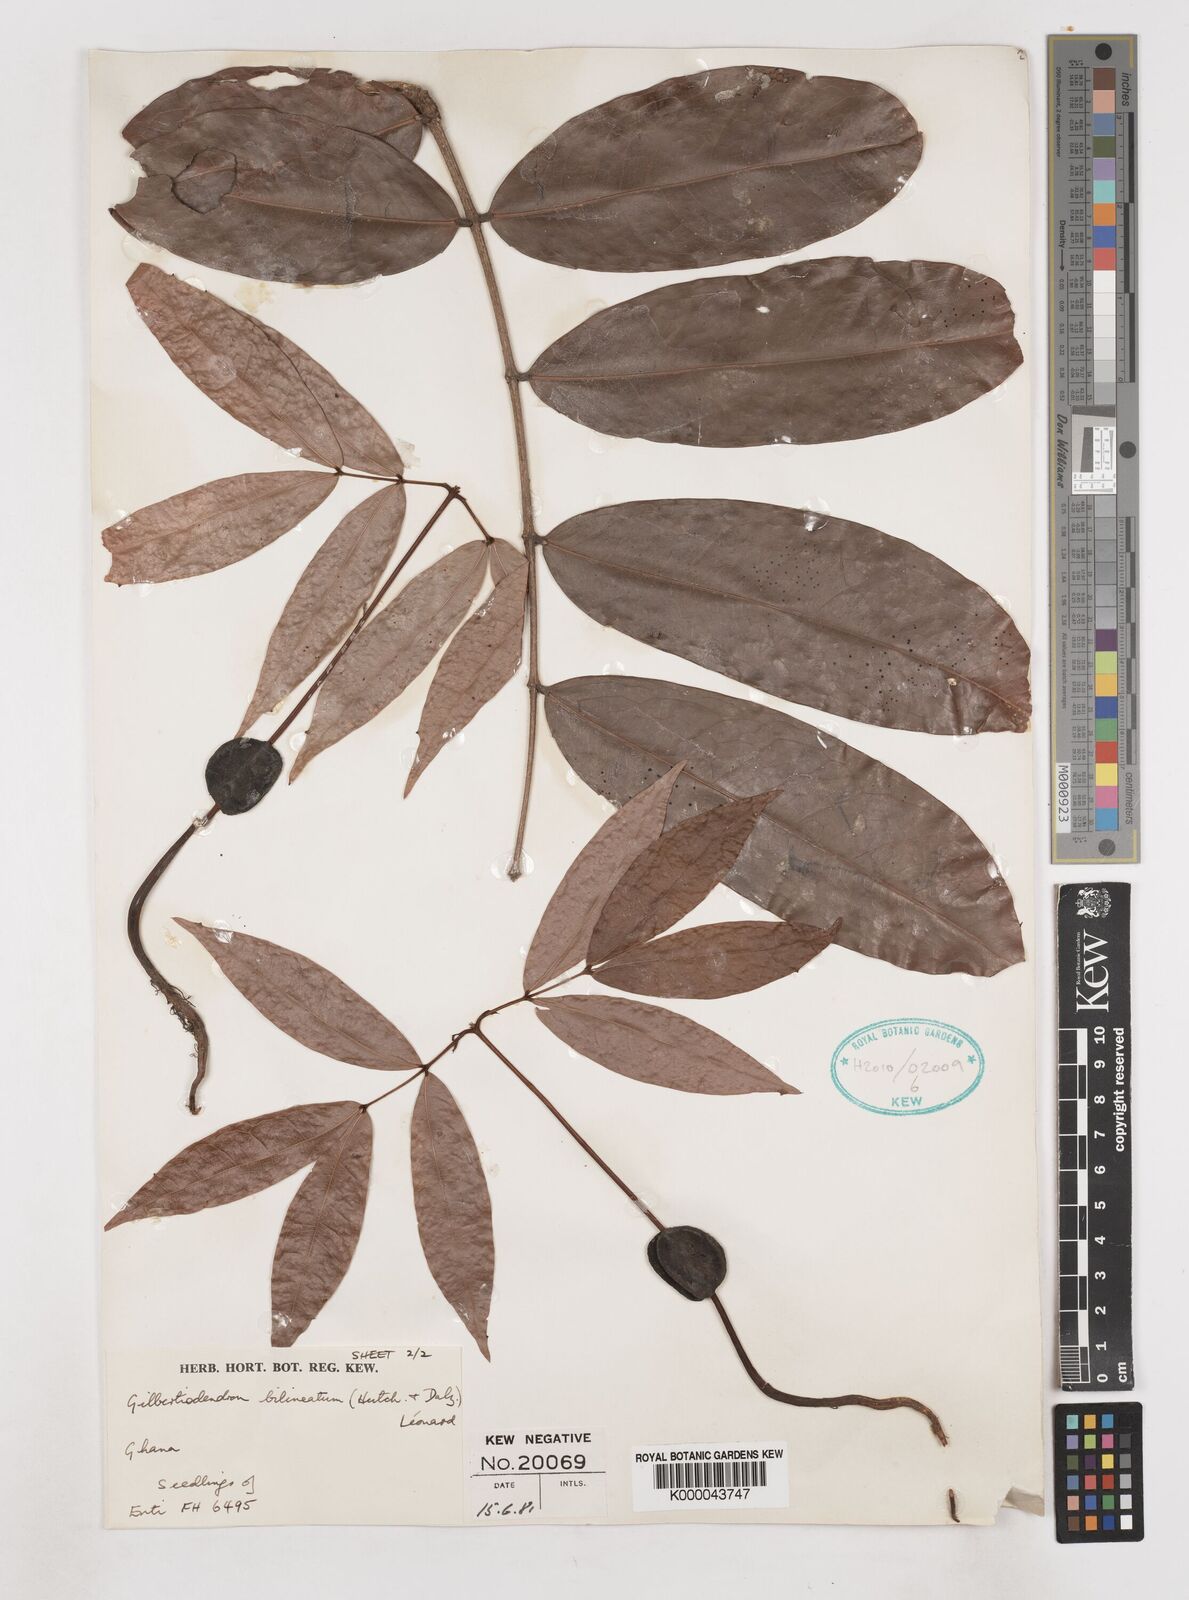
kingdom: Plantae
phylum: Tracheophyta
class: Magnoliopsida
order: Fabales
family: Fabaceae
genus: Gilbertiodendron
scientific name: Gilbertiodendron
